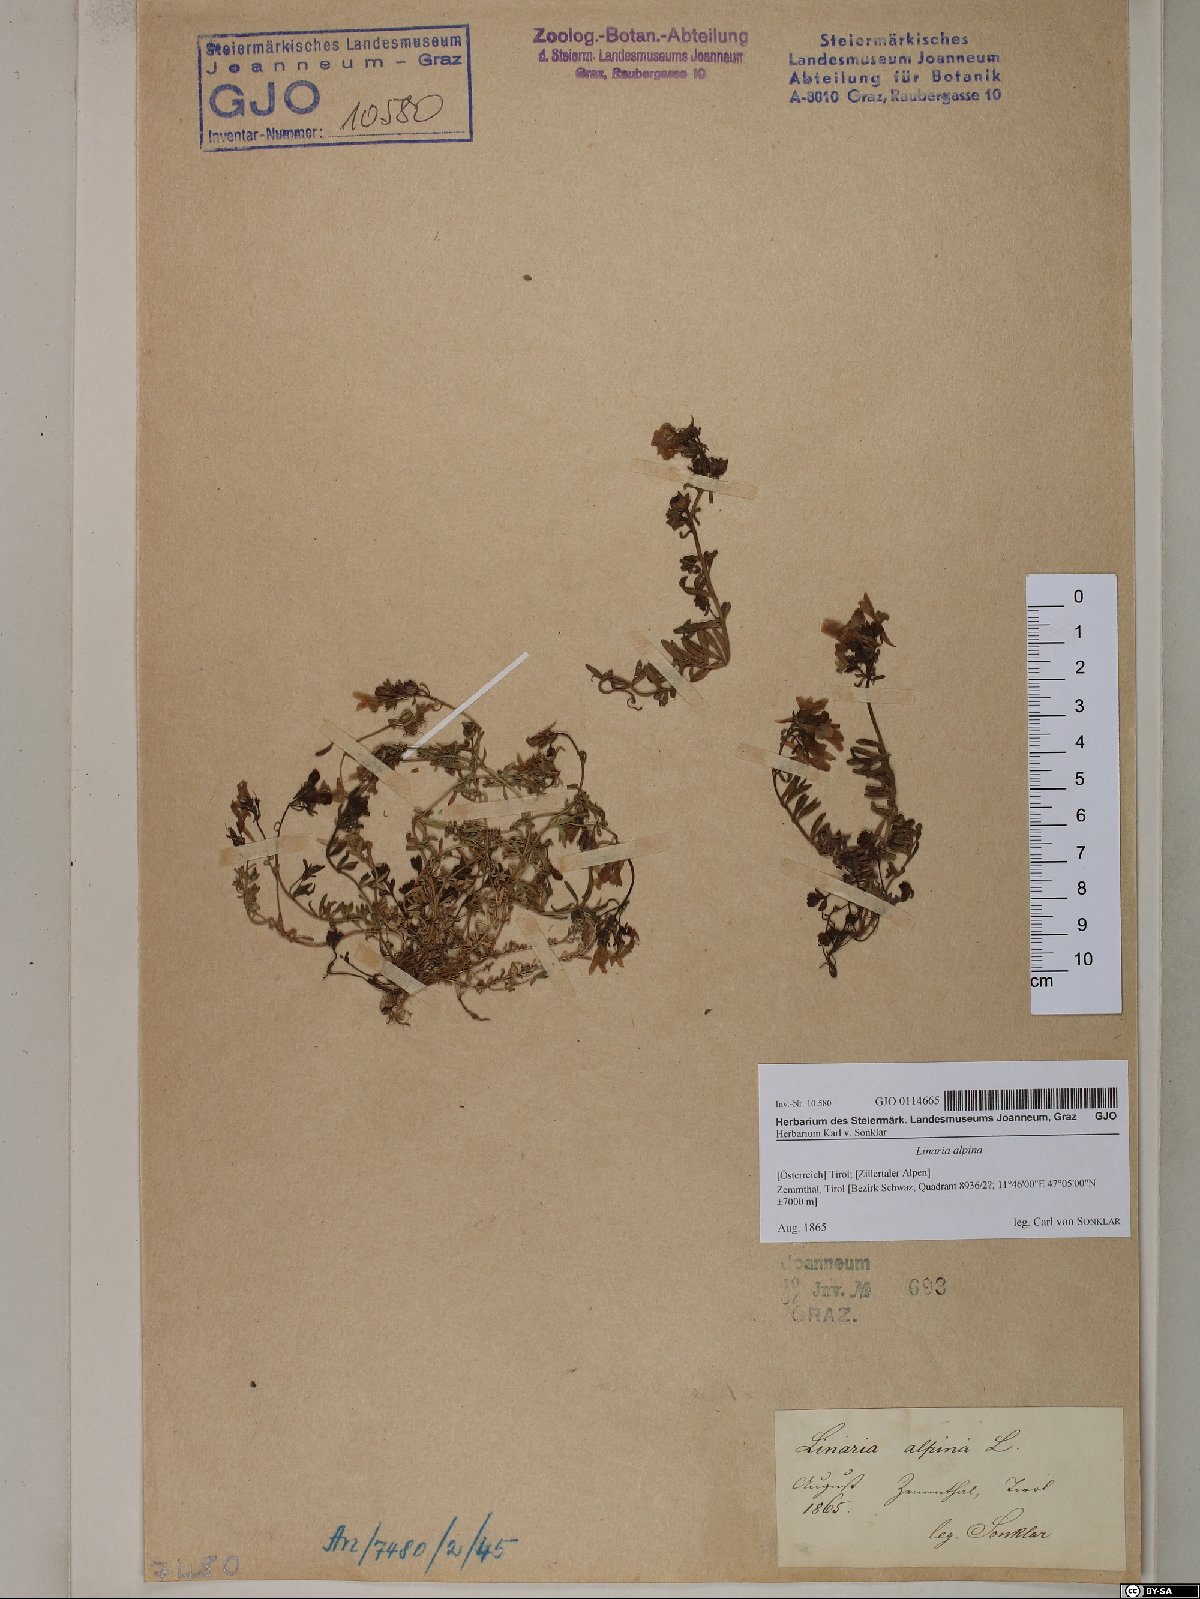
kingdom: Plantae
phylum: Tracheophyta
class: Magnoliopsida
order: Lamiales
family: Plantaginaceae
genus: Linaria
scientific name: Linaria alpina
